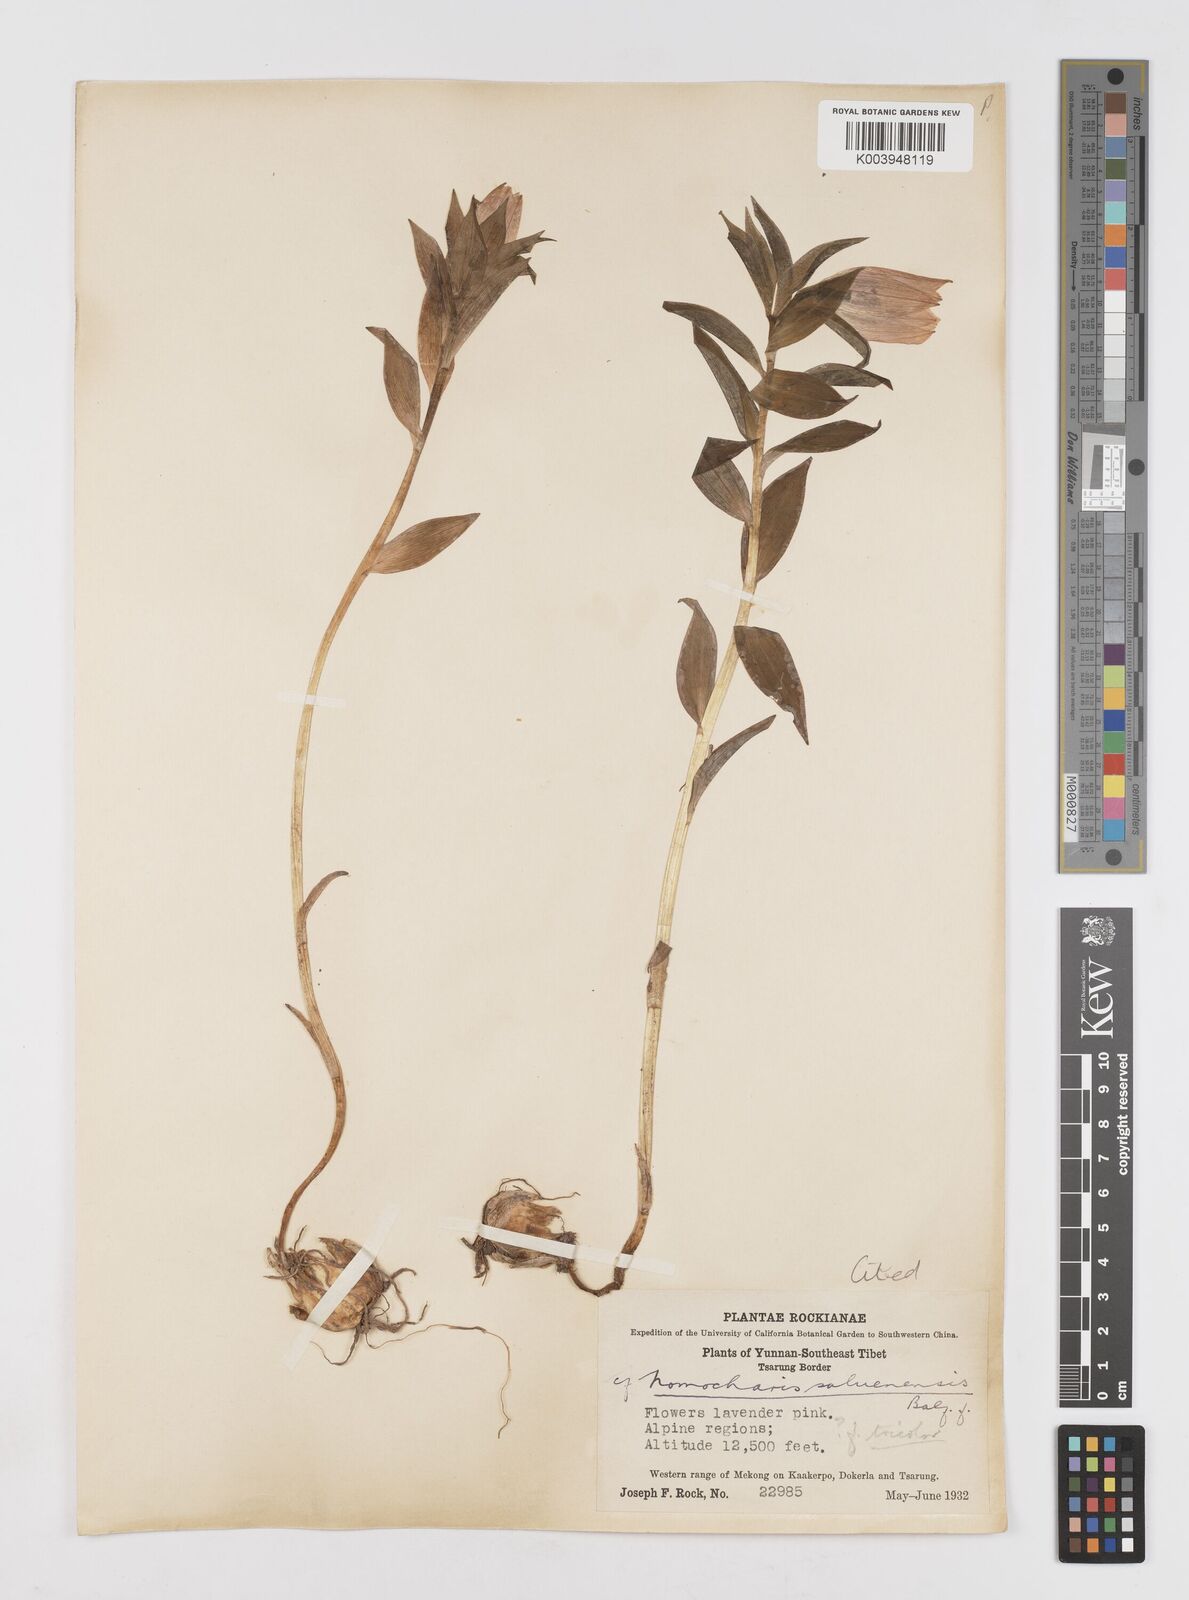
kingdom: Plantae
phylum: Tracheophyta
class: Liliopsida
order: Liliales
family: Liliaceae
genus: Lilium
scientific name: Lilium saluenense
